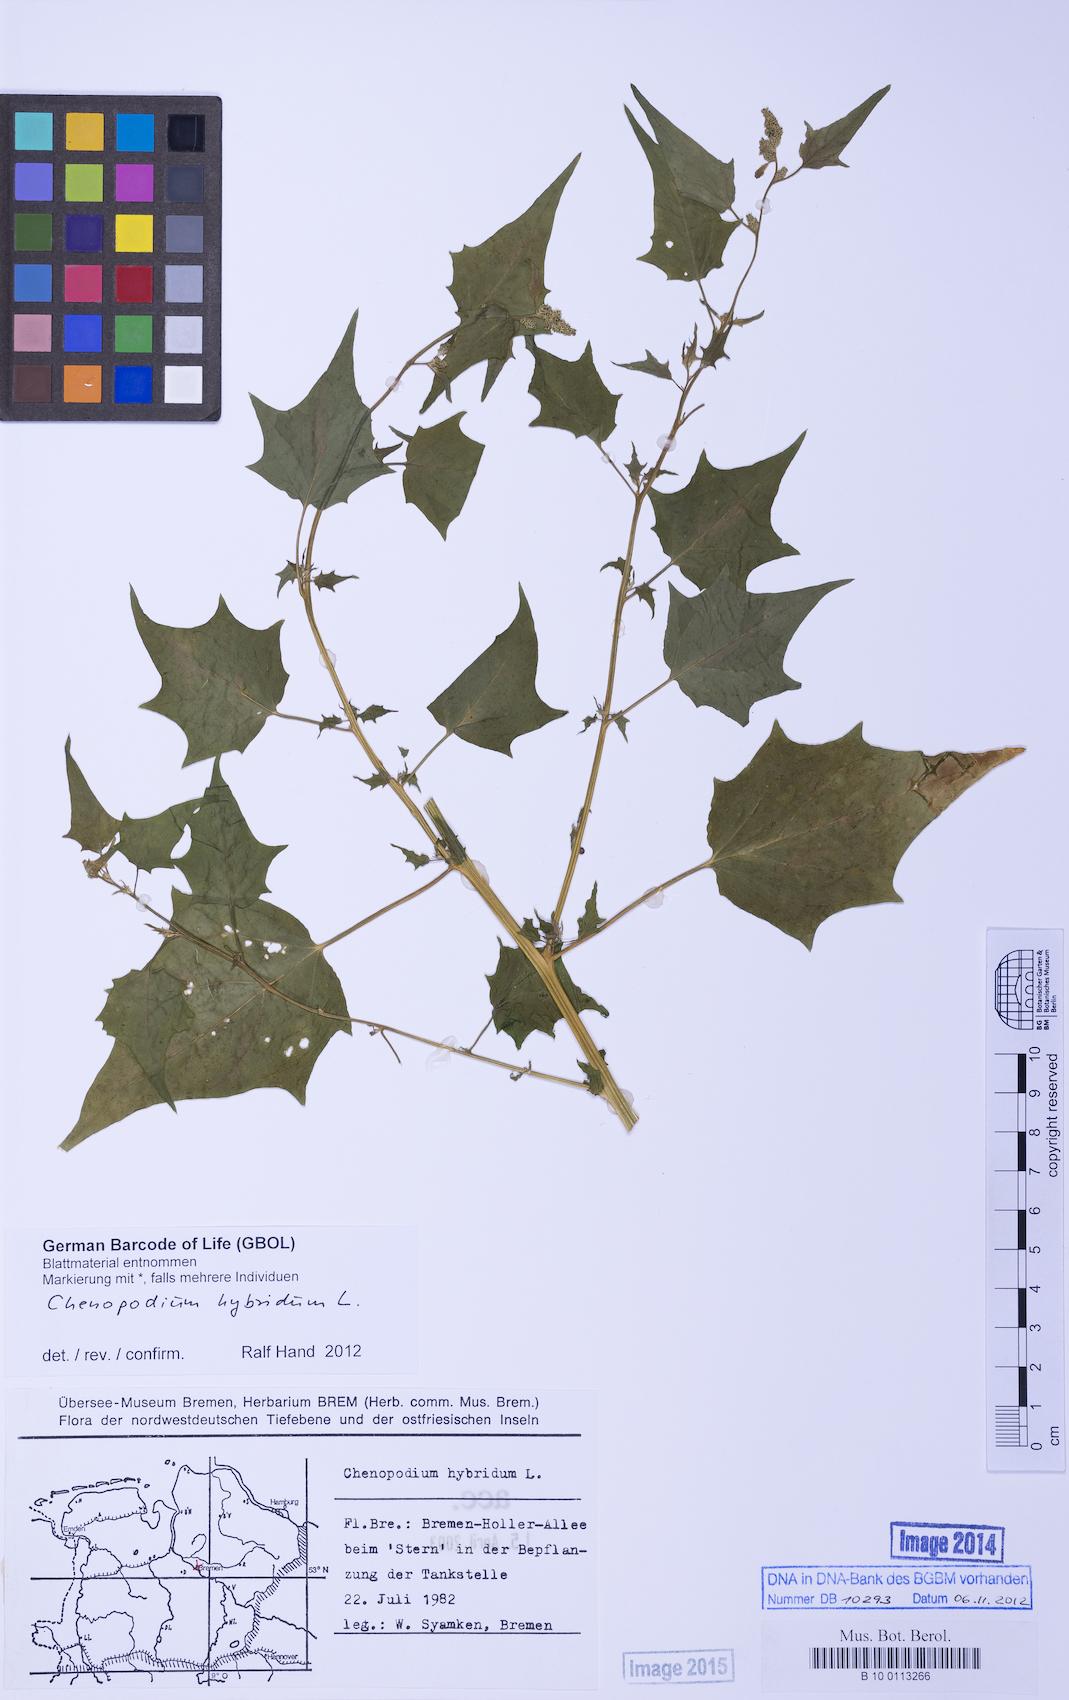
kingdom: Plantae
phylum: Tracheophyta
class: Magnoliopsida
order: Caryophyllales
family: Amaranthaceae
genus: Chenopodiastrum
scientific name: Chenopodiastrum hybridum
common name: Mapleleaf goosefoot
